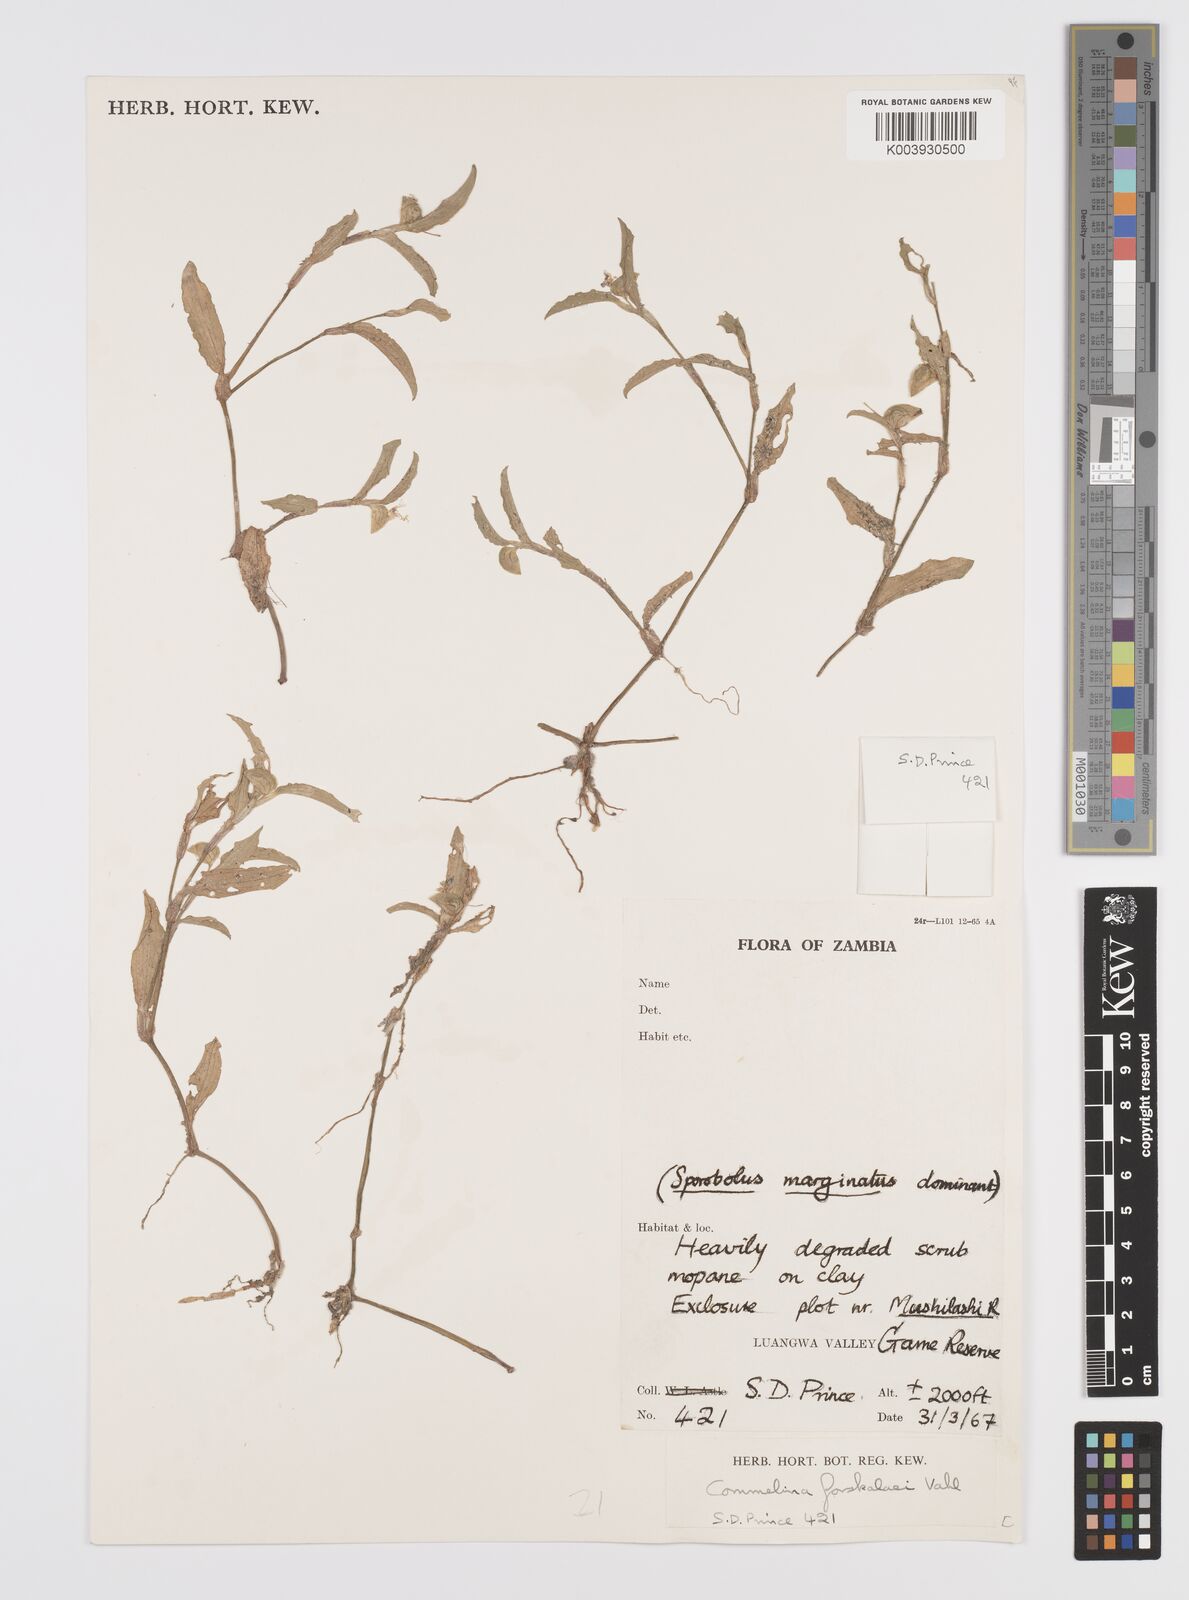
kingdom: Plantae
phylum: Tracheophyta
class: Liliopsida
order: Commelinales
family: Commelinaceae
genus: Commelina
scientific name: Commelina forskaolii
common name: Rat's ear
